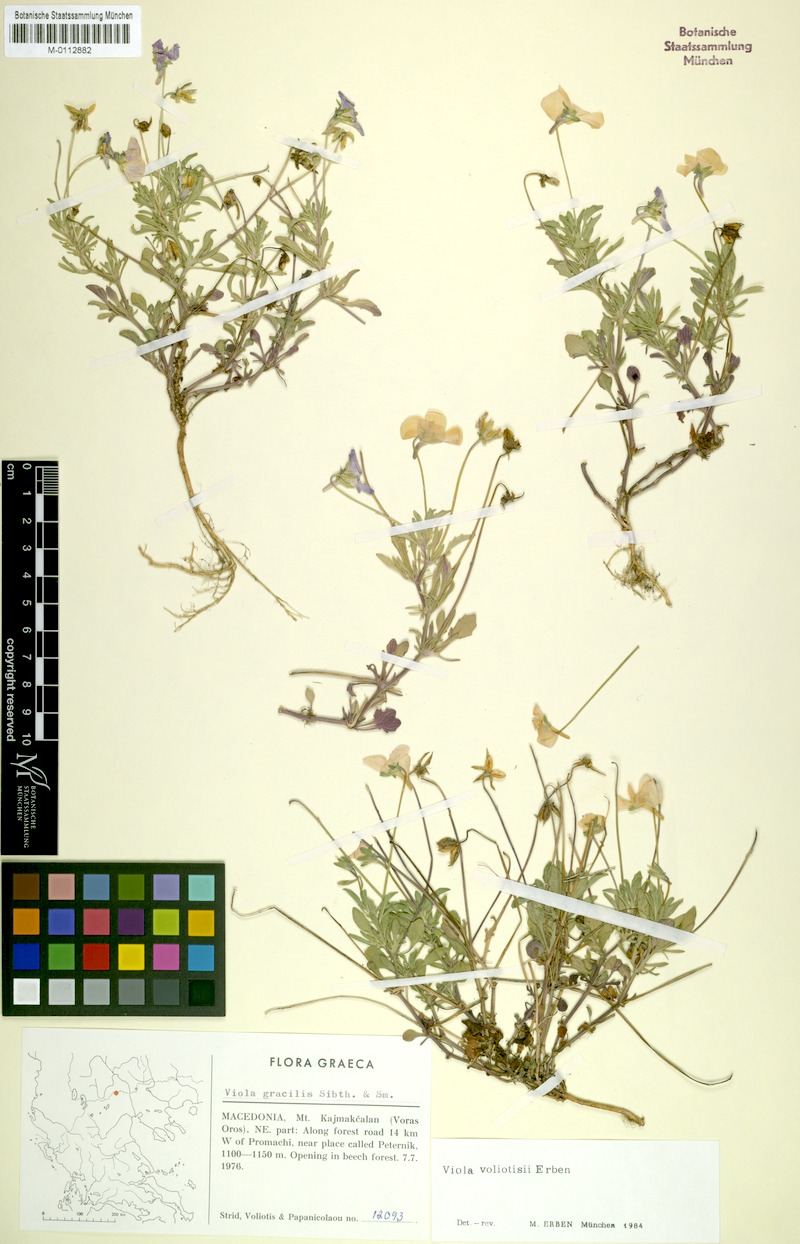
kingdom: Plantae
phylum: Tracheophyta
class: Magnoliopsida
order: Malpighiales
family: Violaceae
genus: Viola
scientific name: Viola voliotisii
